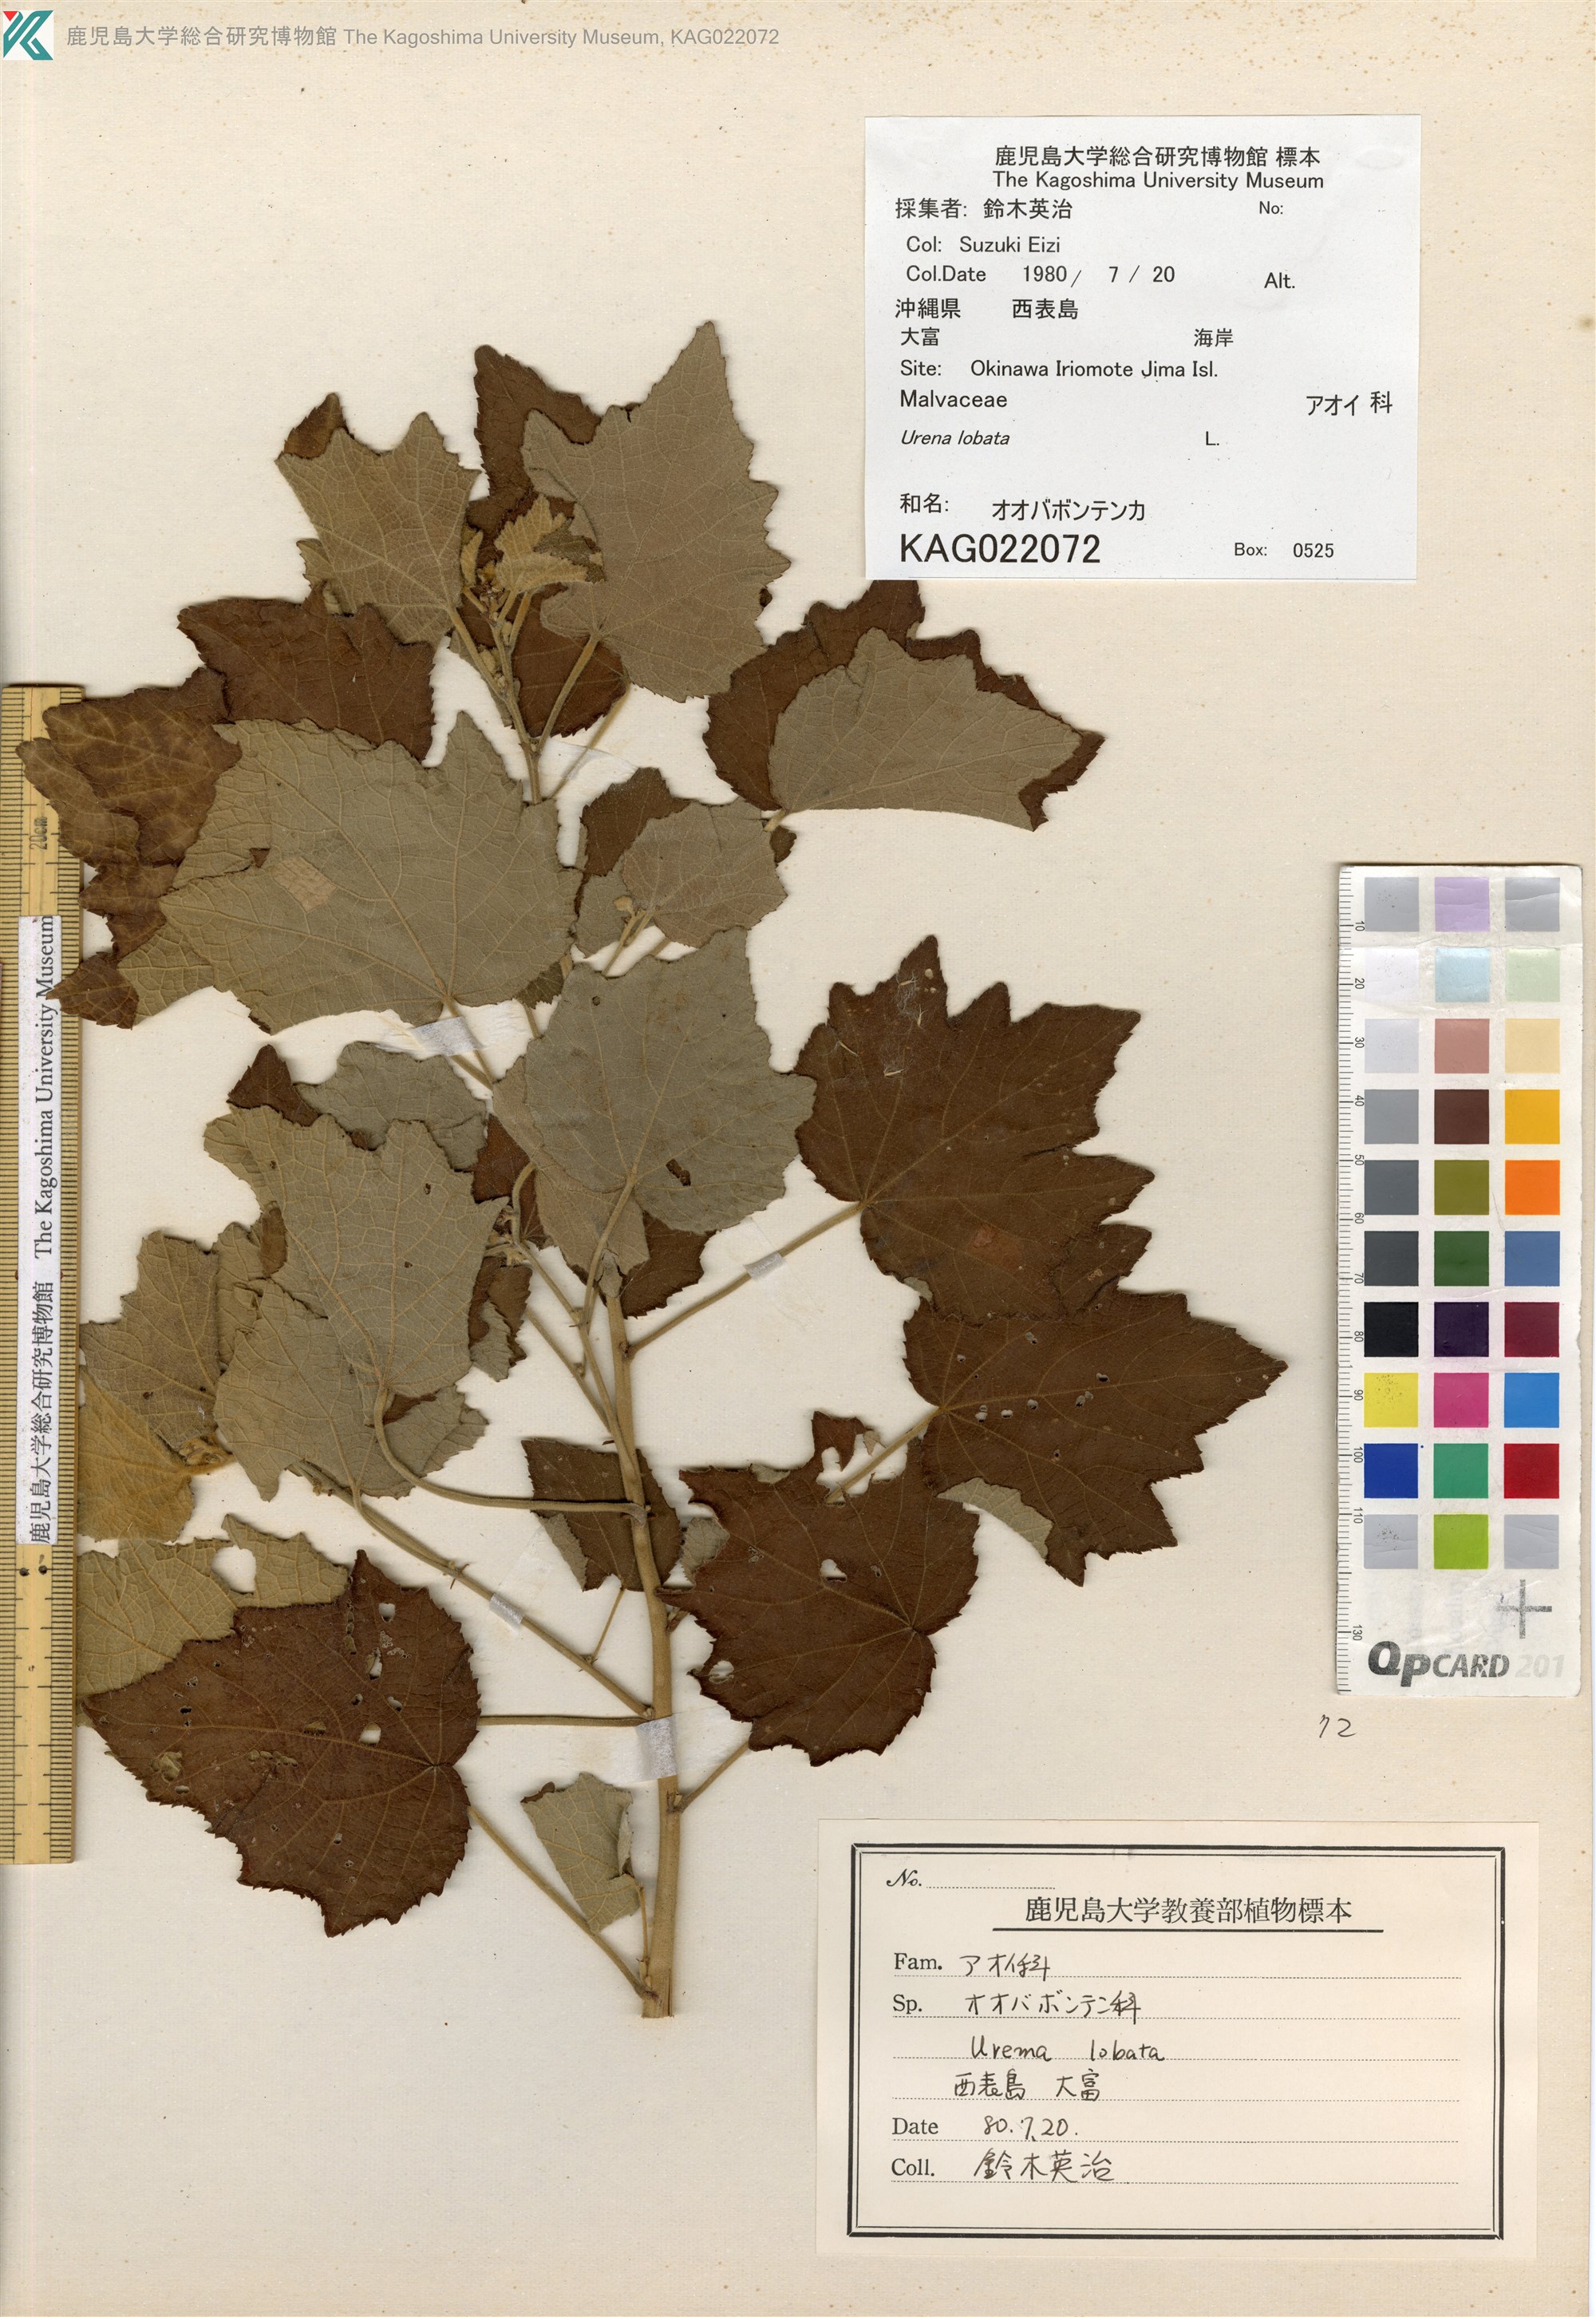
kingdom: Plantae
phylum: Tracheophyta
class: Magnoliopsida
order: Malvales
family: Malvaceae
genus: Urena
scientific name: Urena lobata
